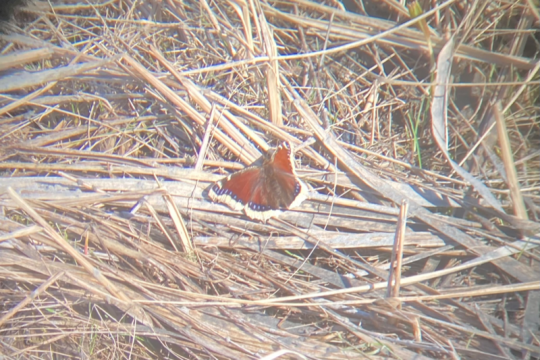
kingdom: Animalia
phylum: Arthropoda
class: Insecta
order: Lepidoptera
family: Nymphalidae
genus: Nymphalis
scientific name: Nymphalis antiopa
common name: Mourning Cloak
